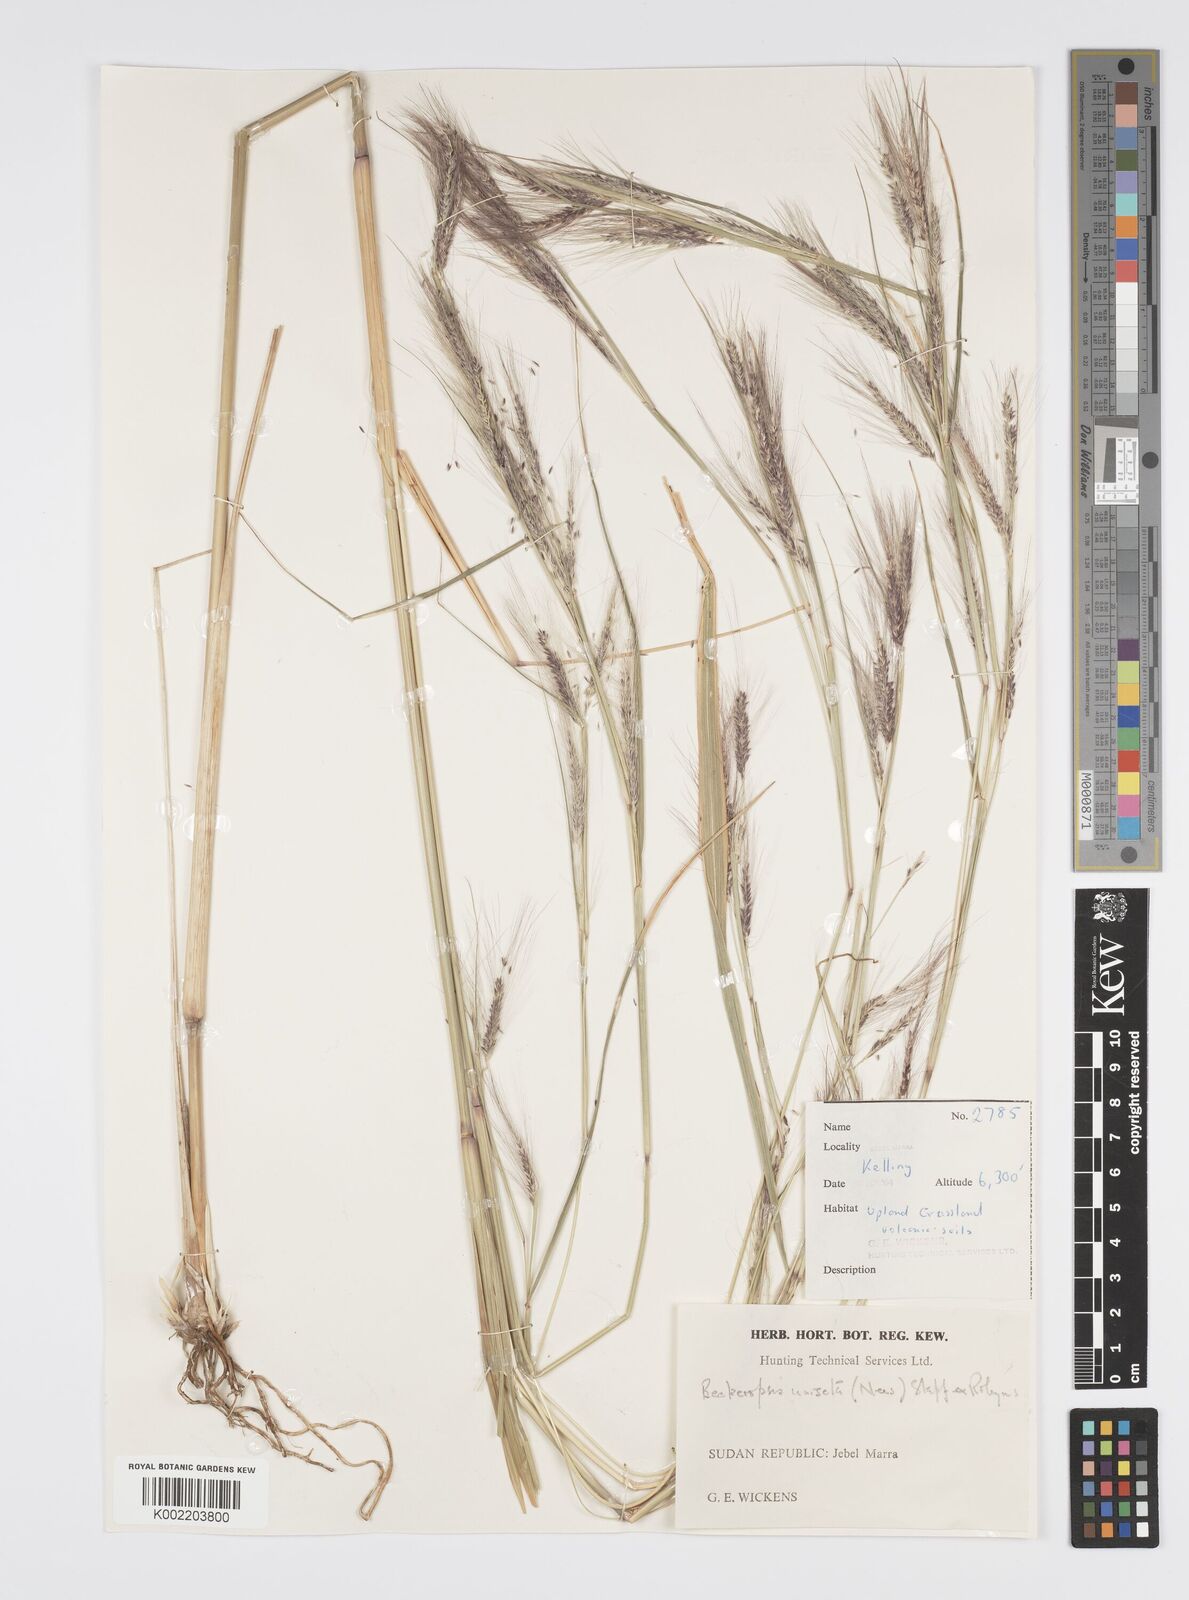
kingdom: Plantae
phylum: Tracheophyta
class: Liliopsida
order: Poales
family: Poaceae
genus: Cenchrus
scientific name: Cenchrus unisetus
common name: Natal grass
